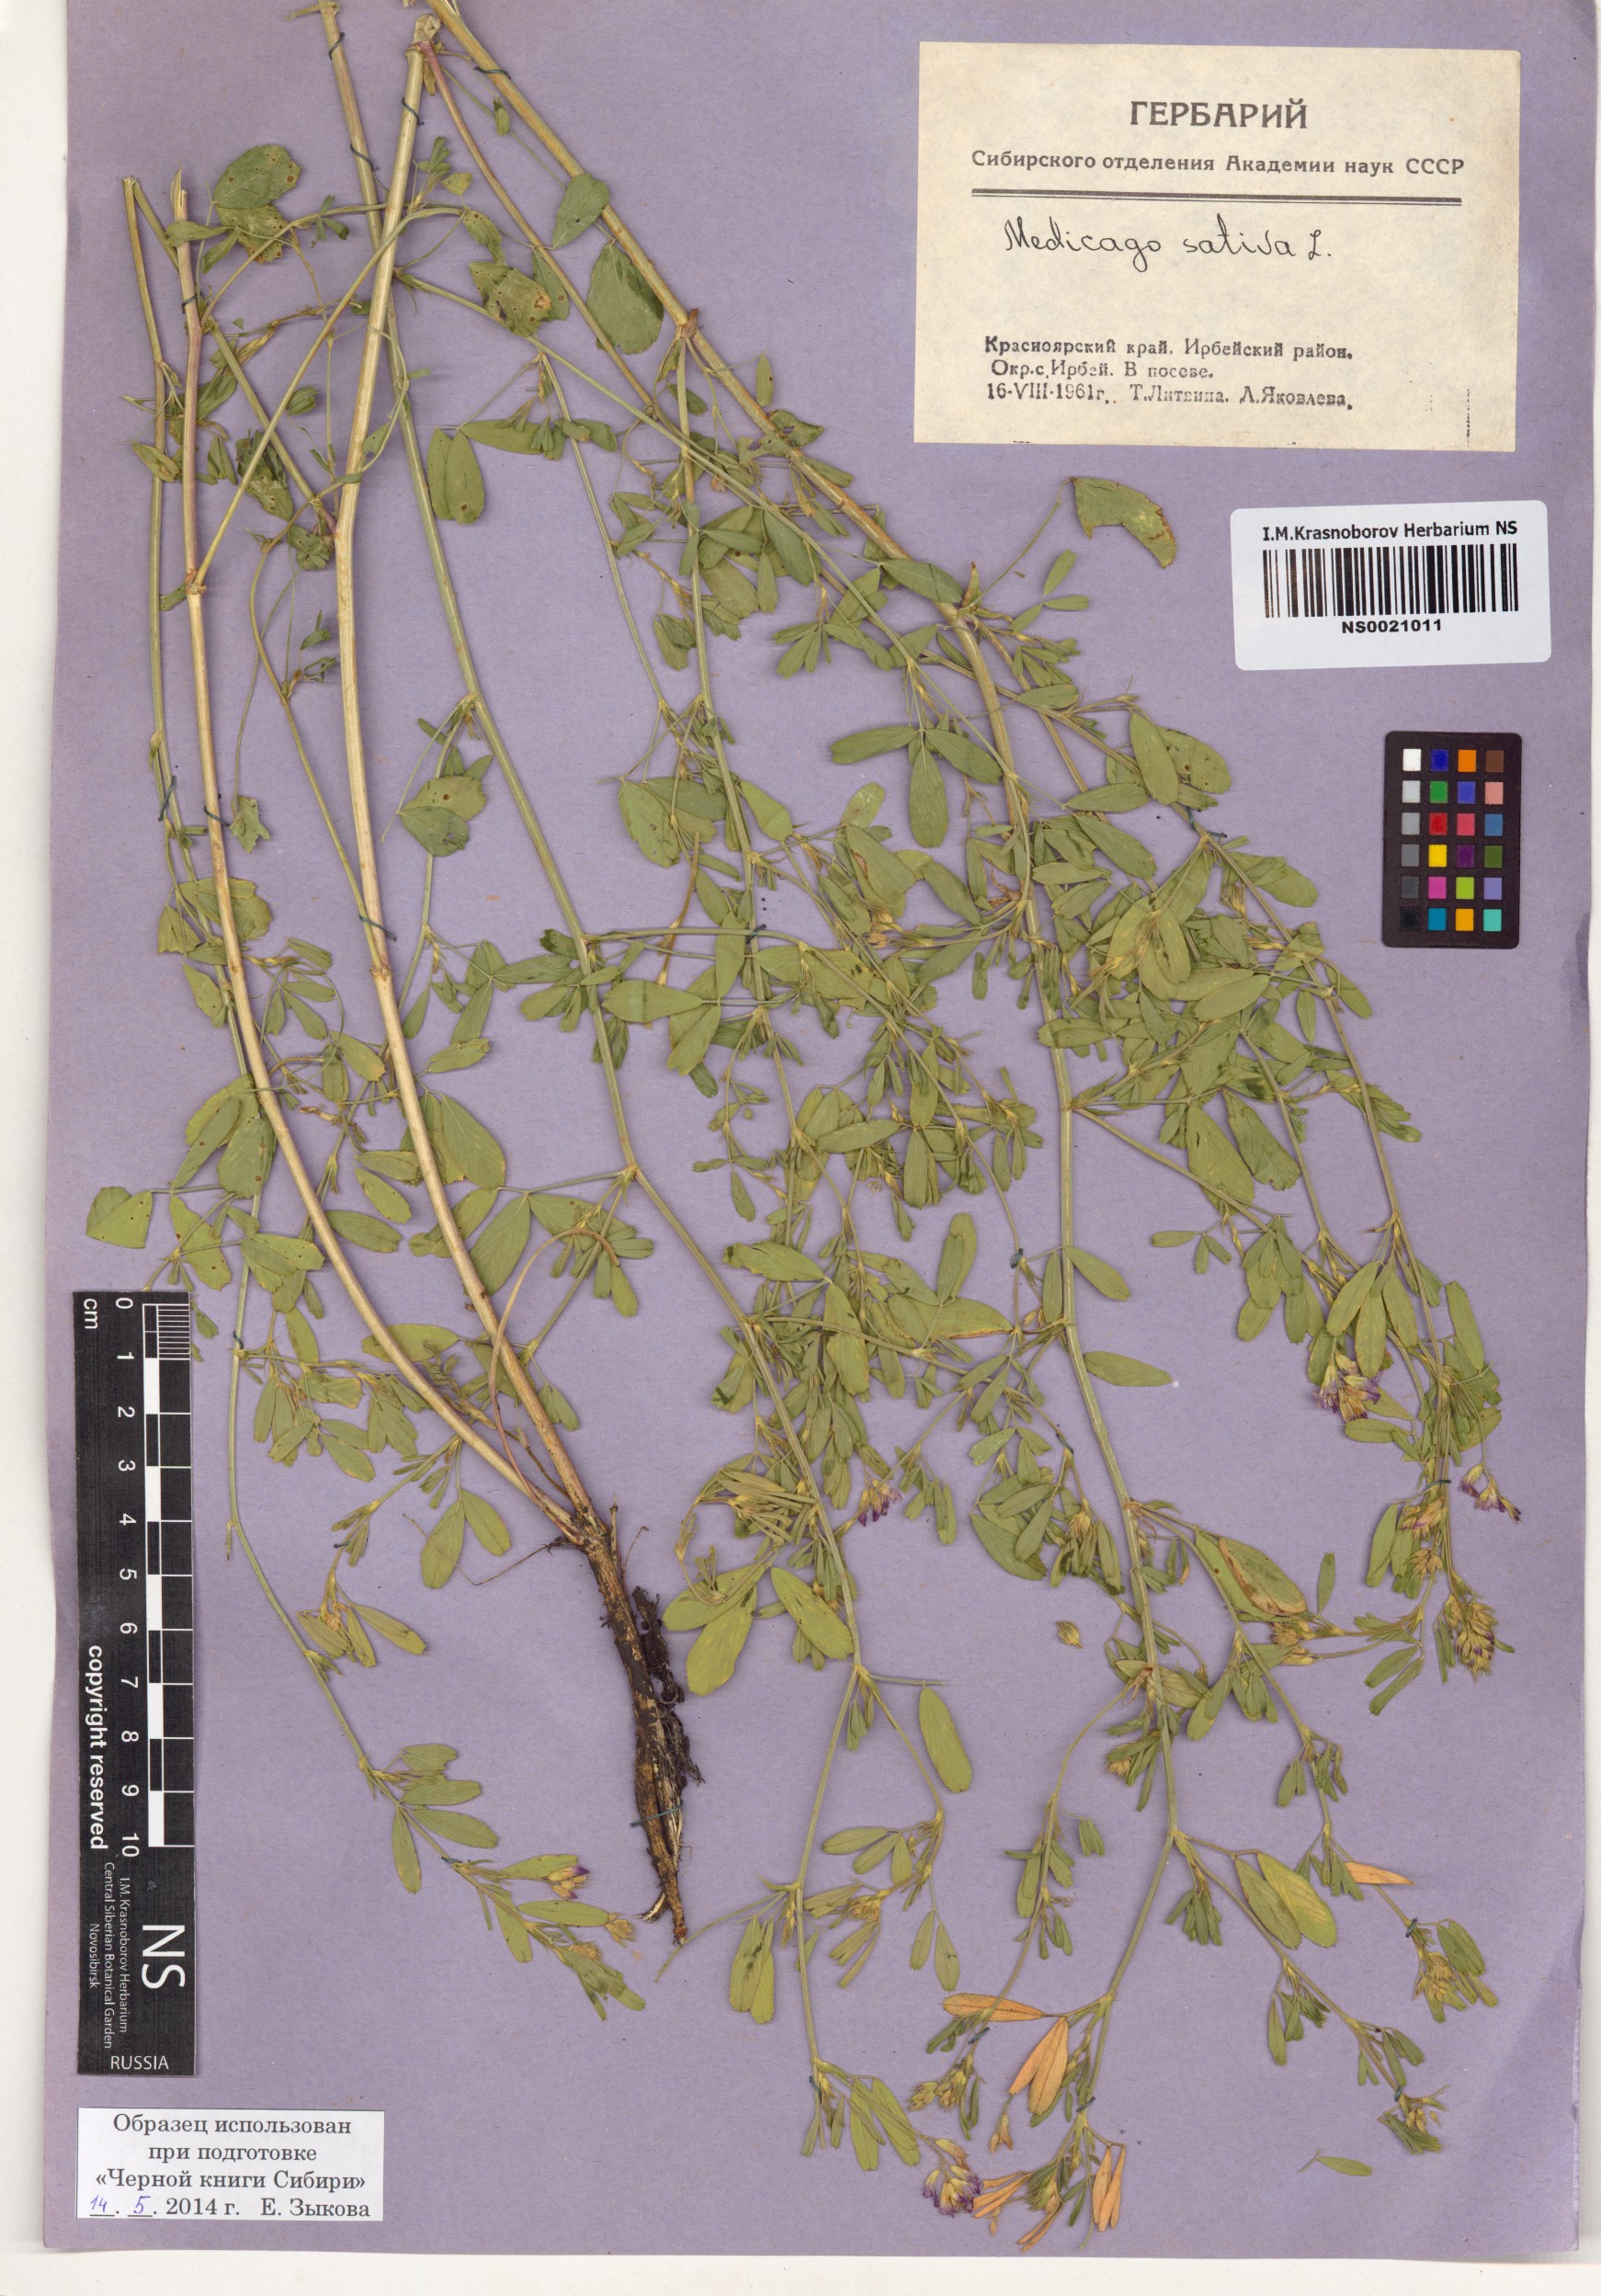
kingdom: Plantae
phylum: Tracheophyta
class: Magnoliopsida
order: Fabales
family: Fabaceae
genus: Medicago
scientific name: Medicago sativa
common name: Alfalfa
